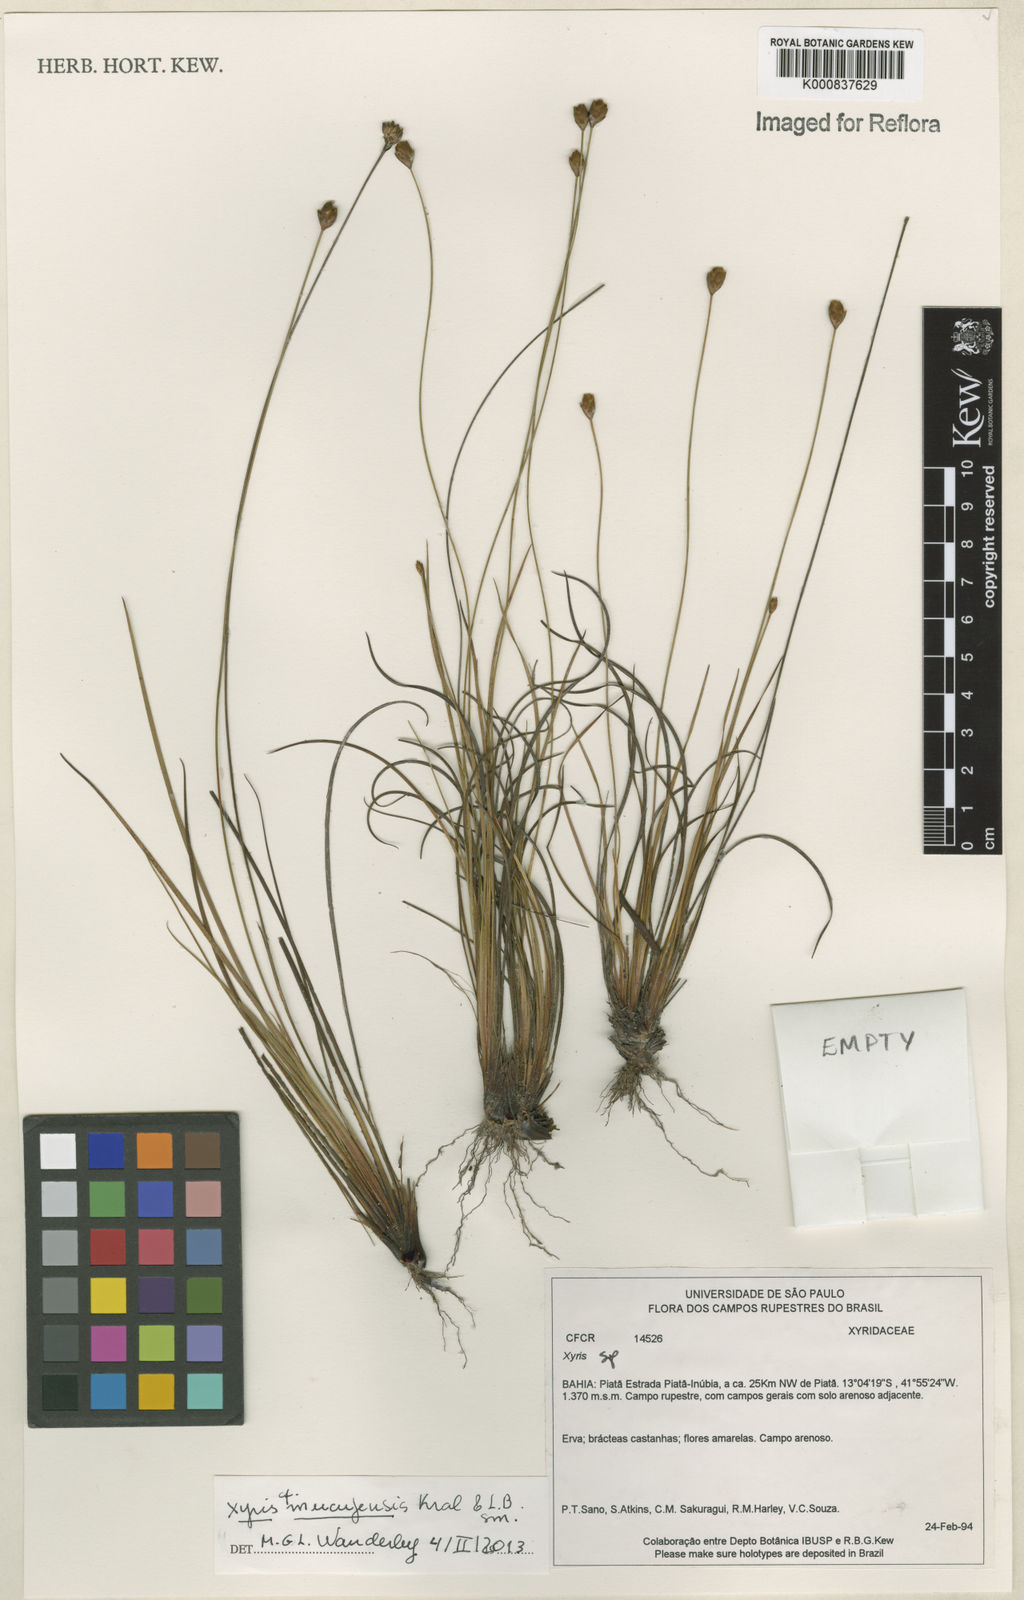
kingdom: Plantae
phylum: Tracheophyta
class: Liliopsida
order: Poales
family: Xyridaceae
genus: Xyris
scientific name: Xyris mucujensis
